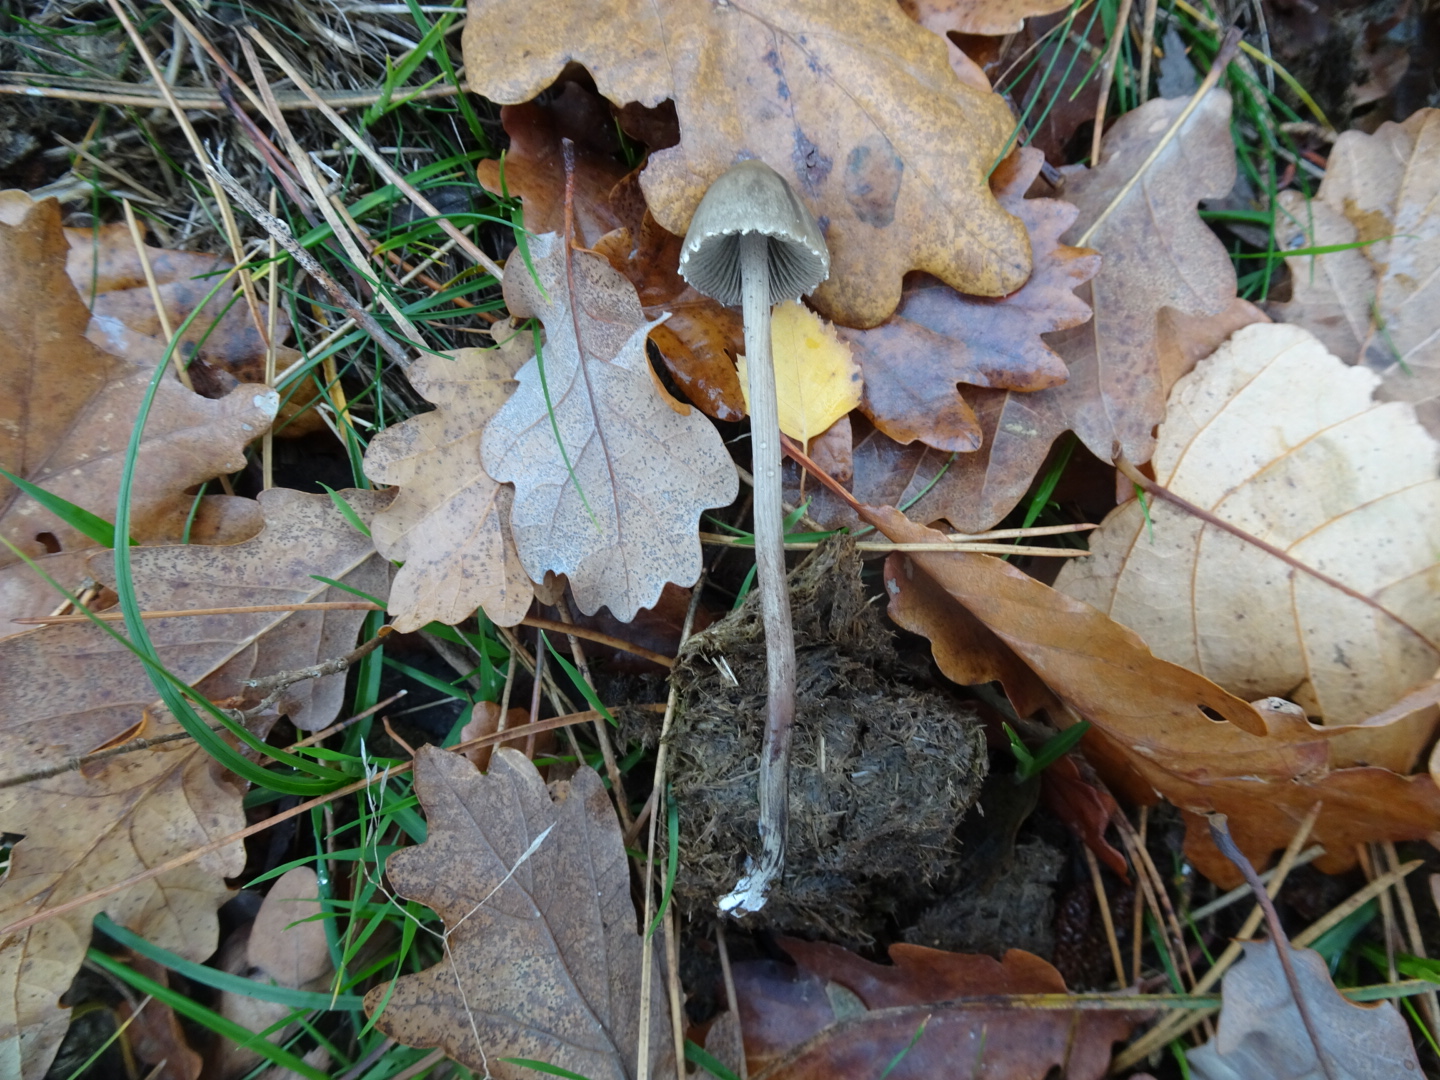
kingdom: Fungi
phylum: Basidiomycota
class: Agaricomycetes
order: Agaricales
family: Bolbitiaceae
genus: Panaeolus
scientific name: Panaeolus papilionaceus
